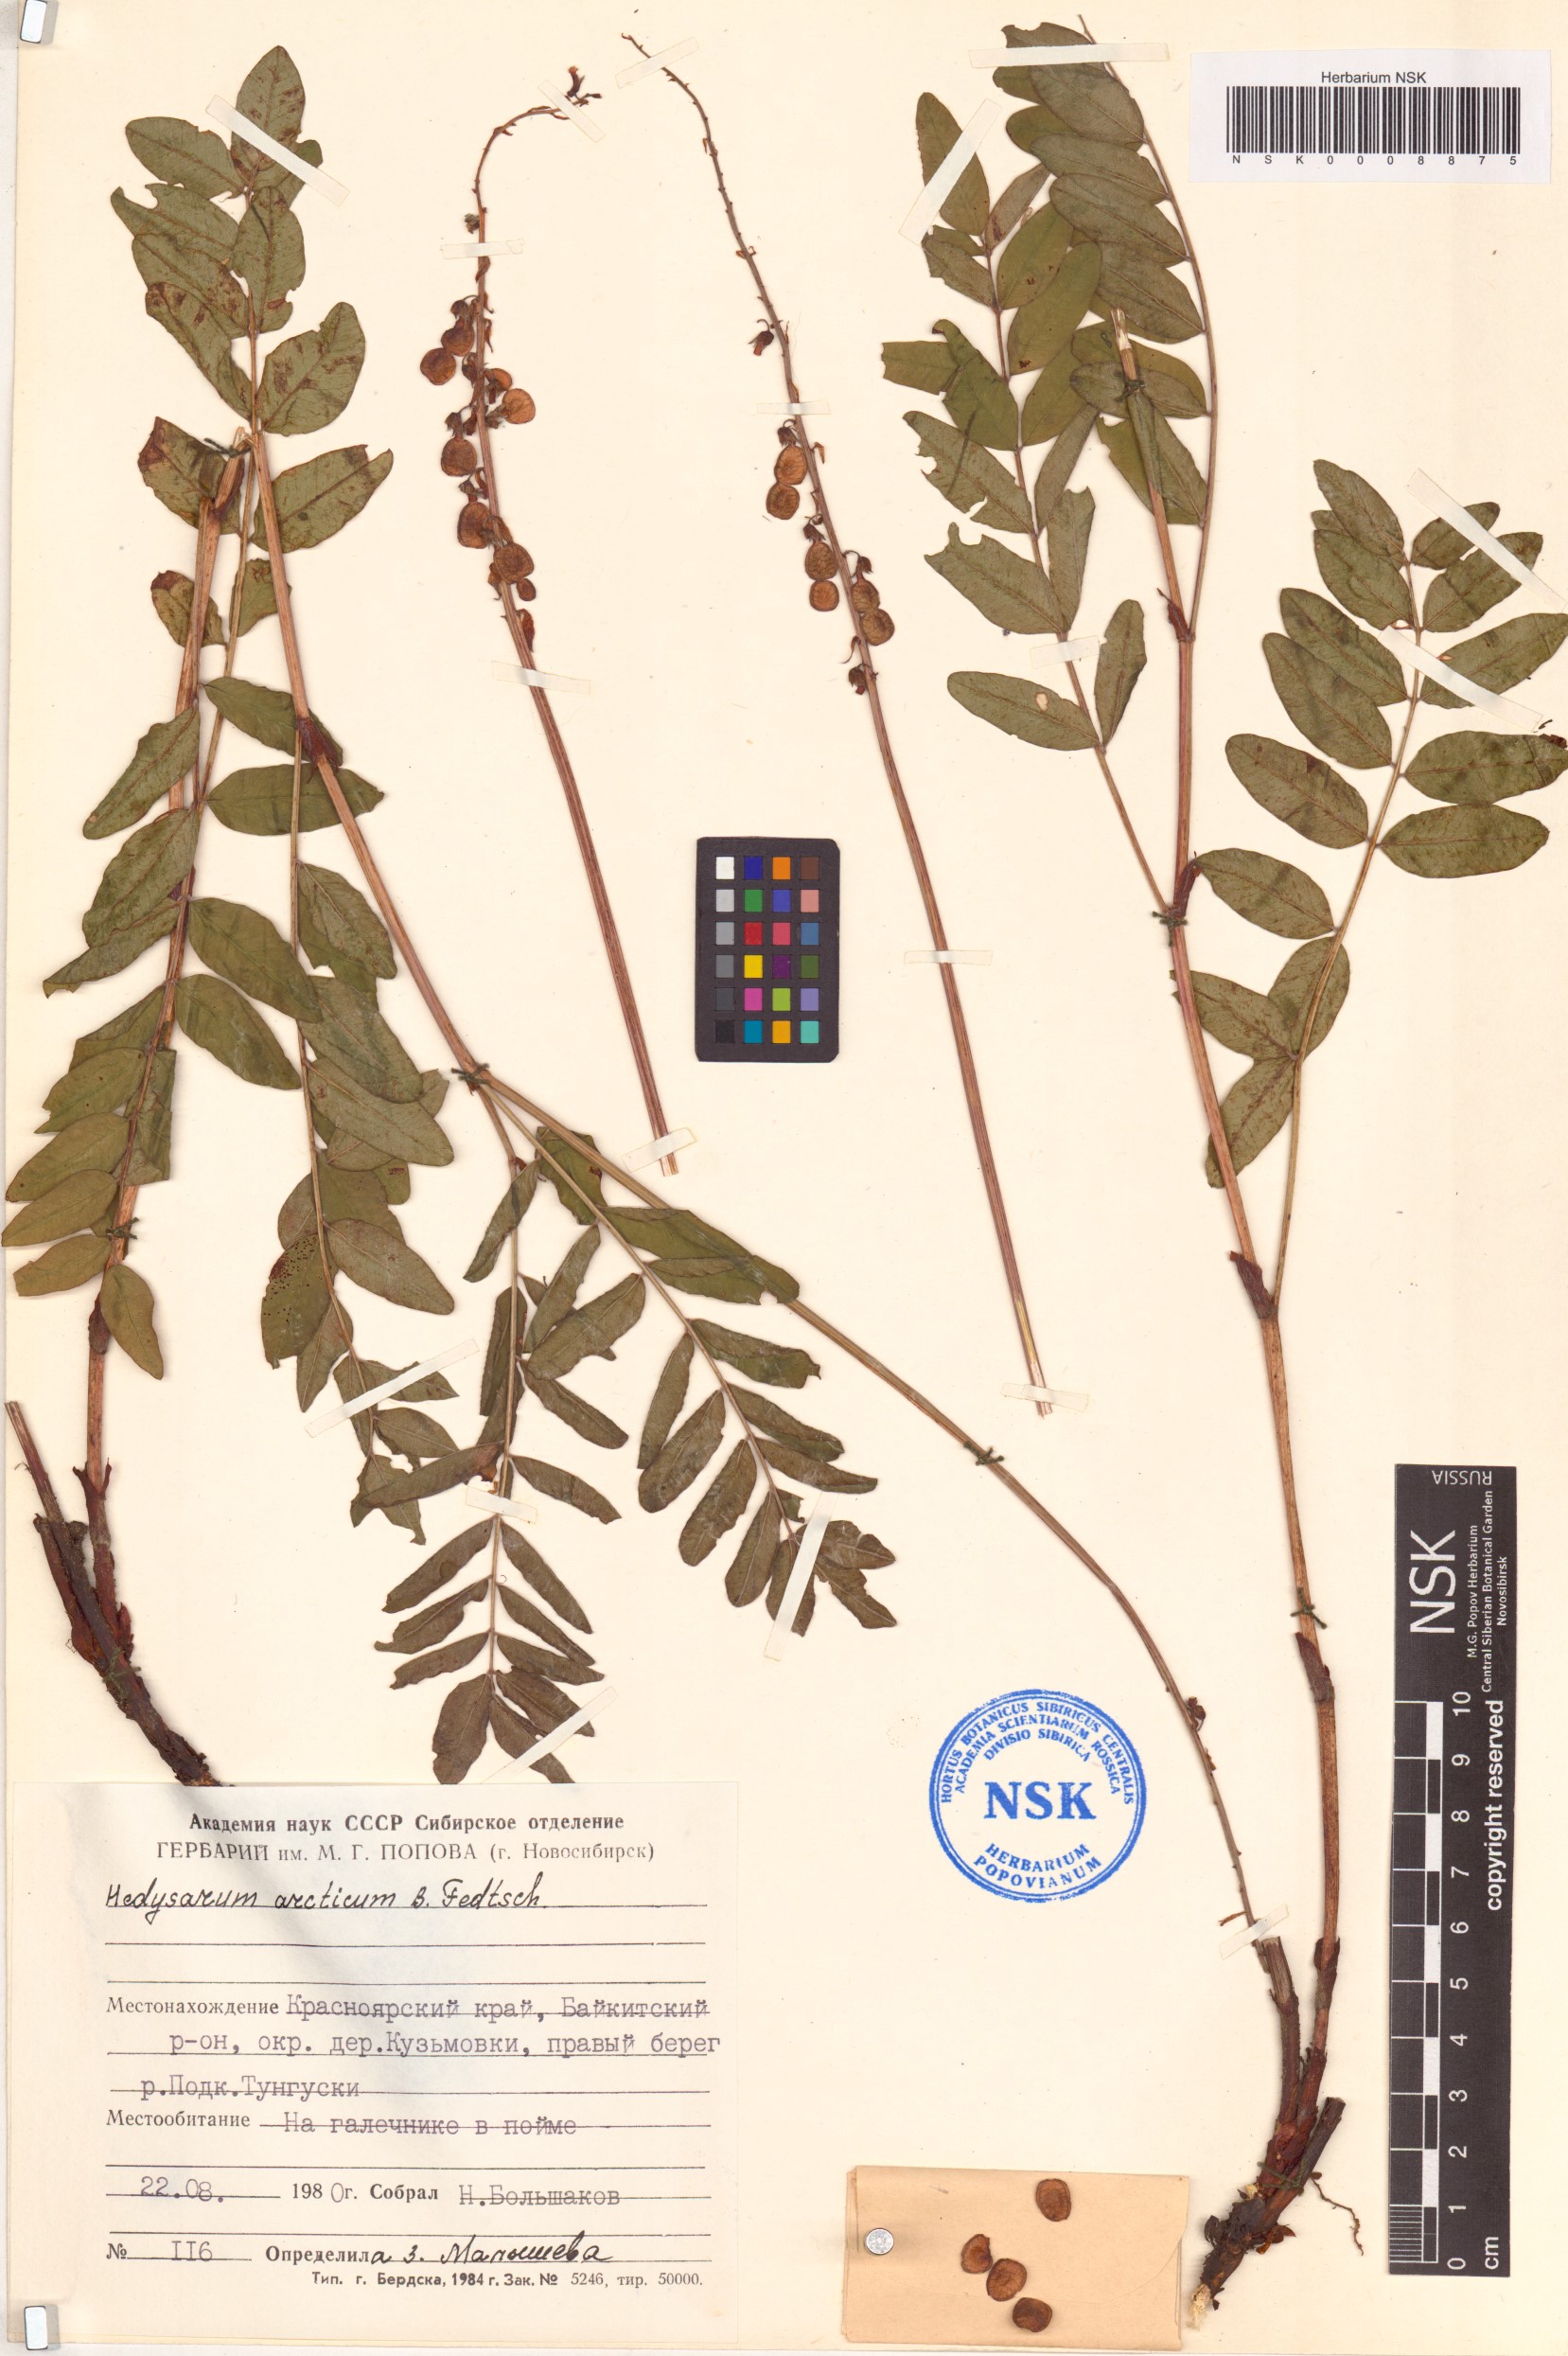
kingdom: Plantae
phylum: Tracheophyta
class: Magnoliopsida
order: Fabales
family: Fabaceae
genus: Hedysarum
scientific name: Hedysarum hedysaroides
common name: Alpine french-honeysuckle
